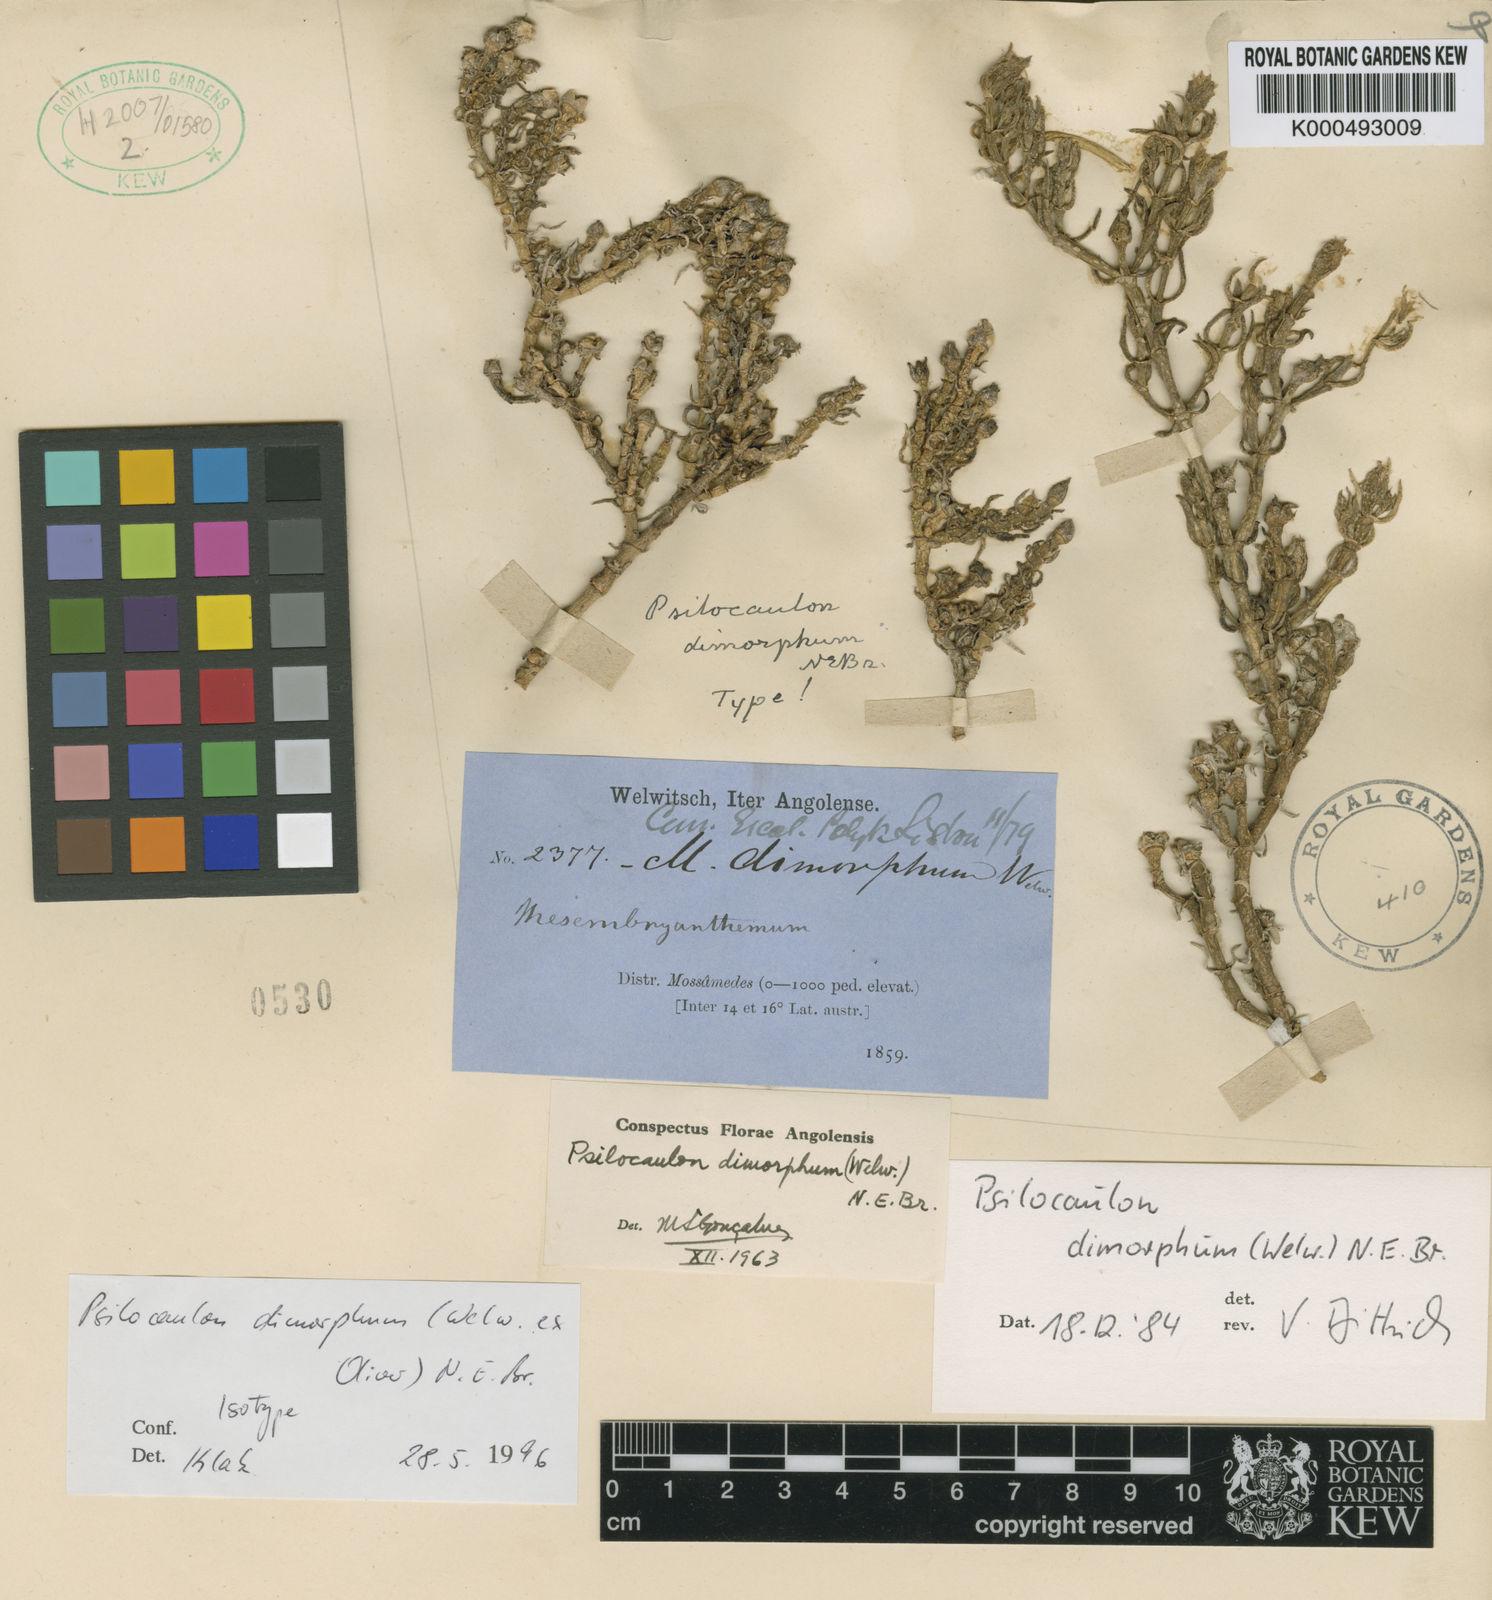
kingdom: Plantae
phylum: Tracheophyta
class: Magnoliopsida
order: Caryophyllales
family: Aizoaceae
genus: Mesembryanthemum
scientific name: Mesembryanthemum dimorphum
